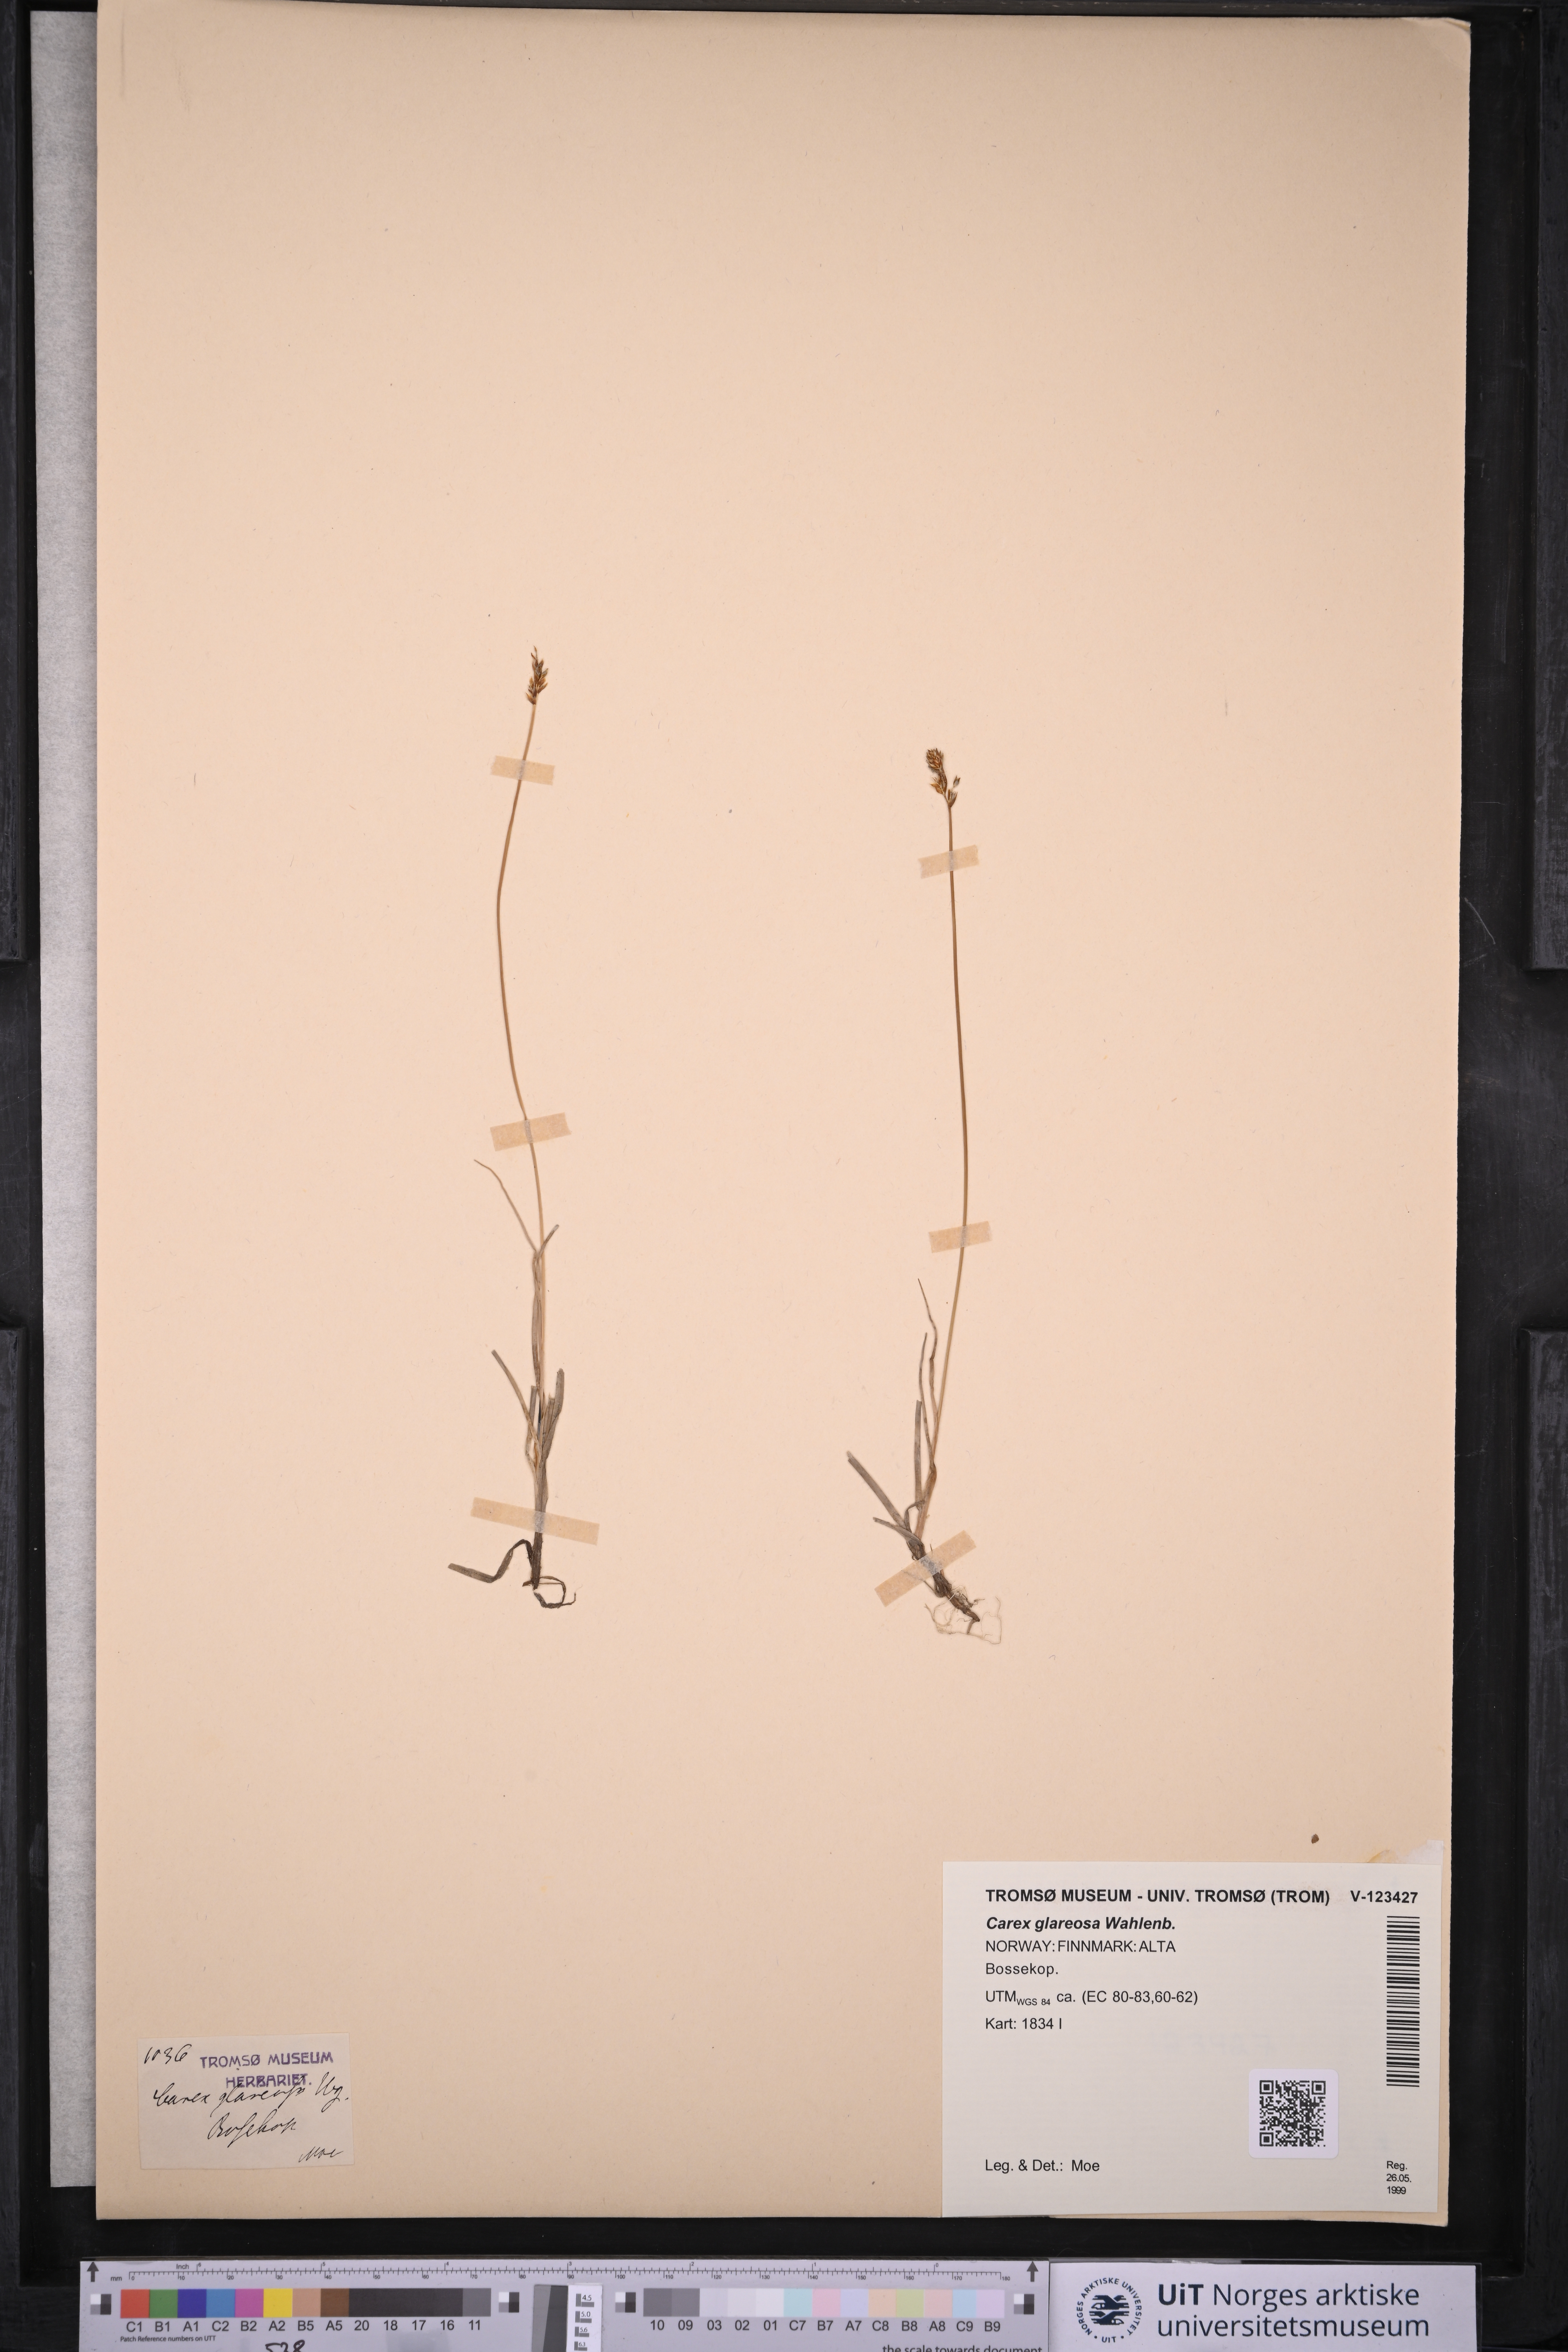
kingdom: Plantae
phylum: Tracheophyta
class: Liliopsida
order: Poales
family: Cyperaceae
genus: Carex
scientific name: Carex glareosa
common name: Clustered sedge
